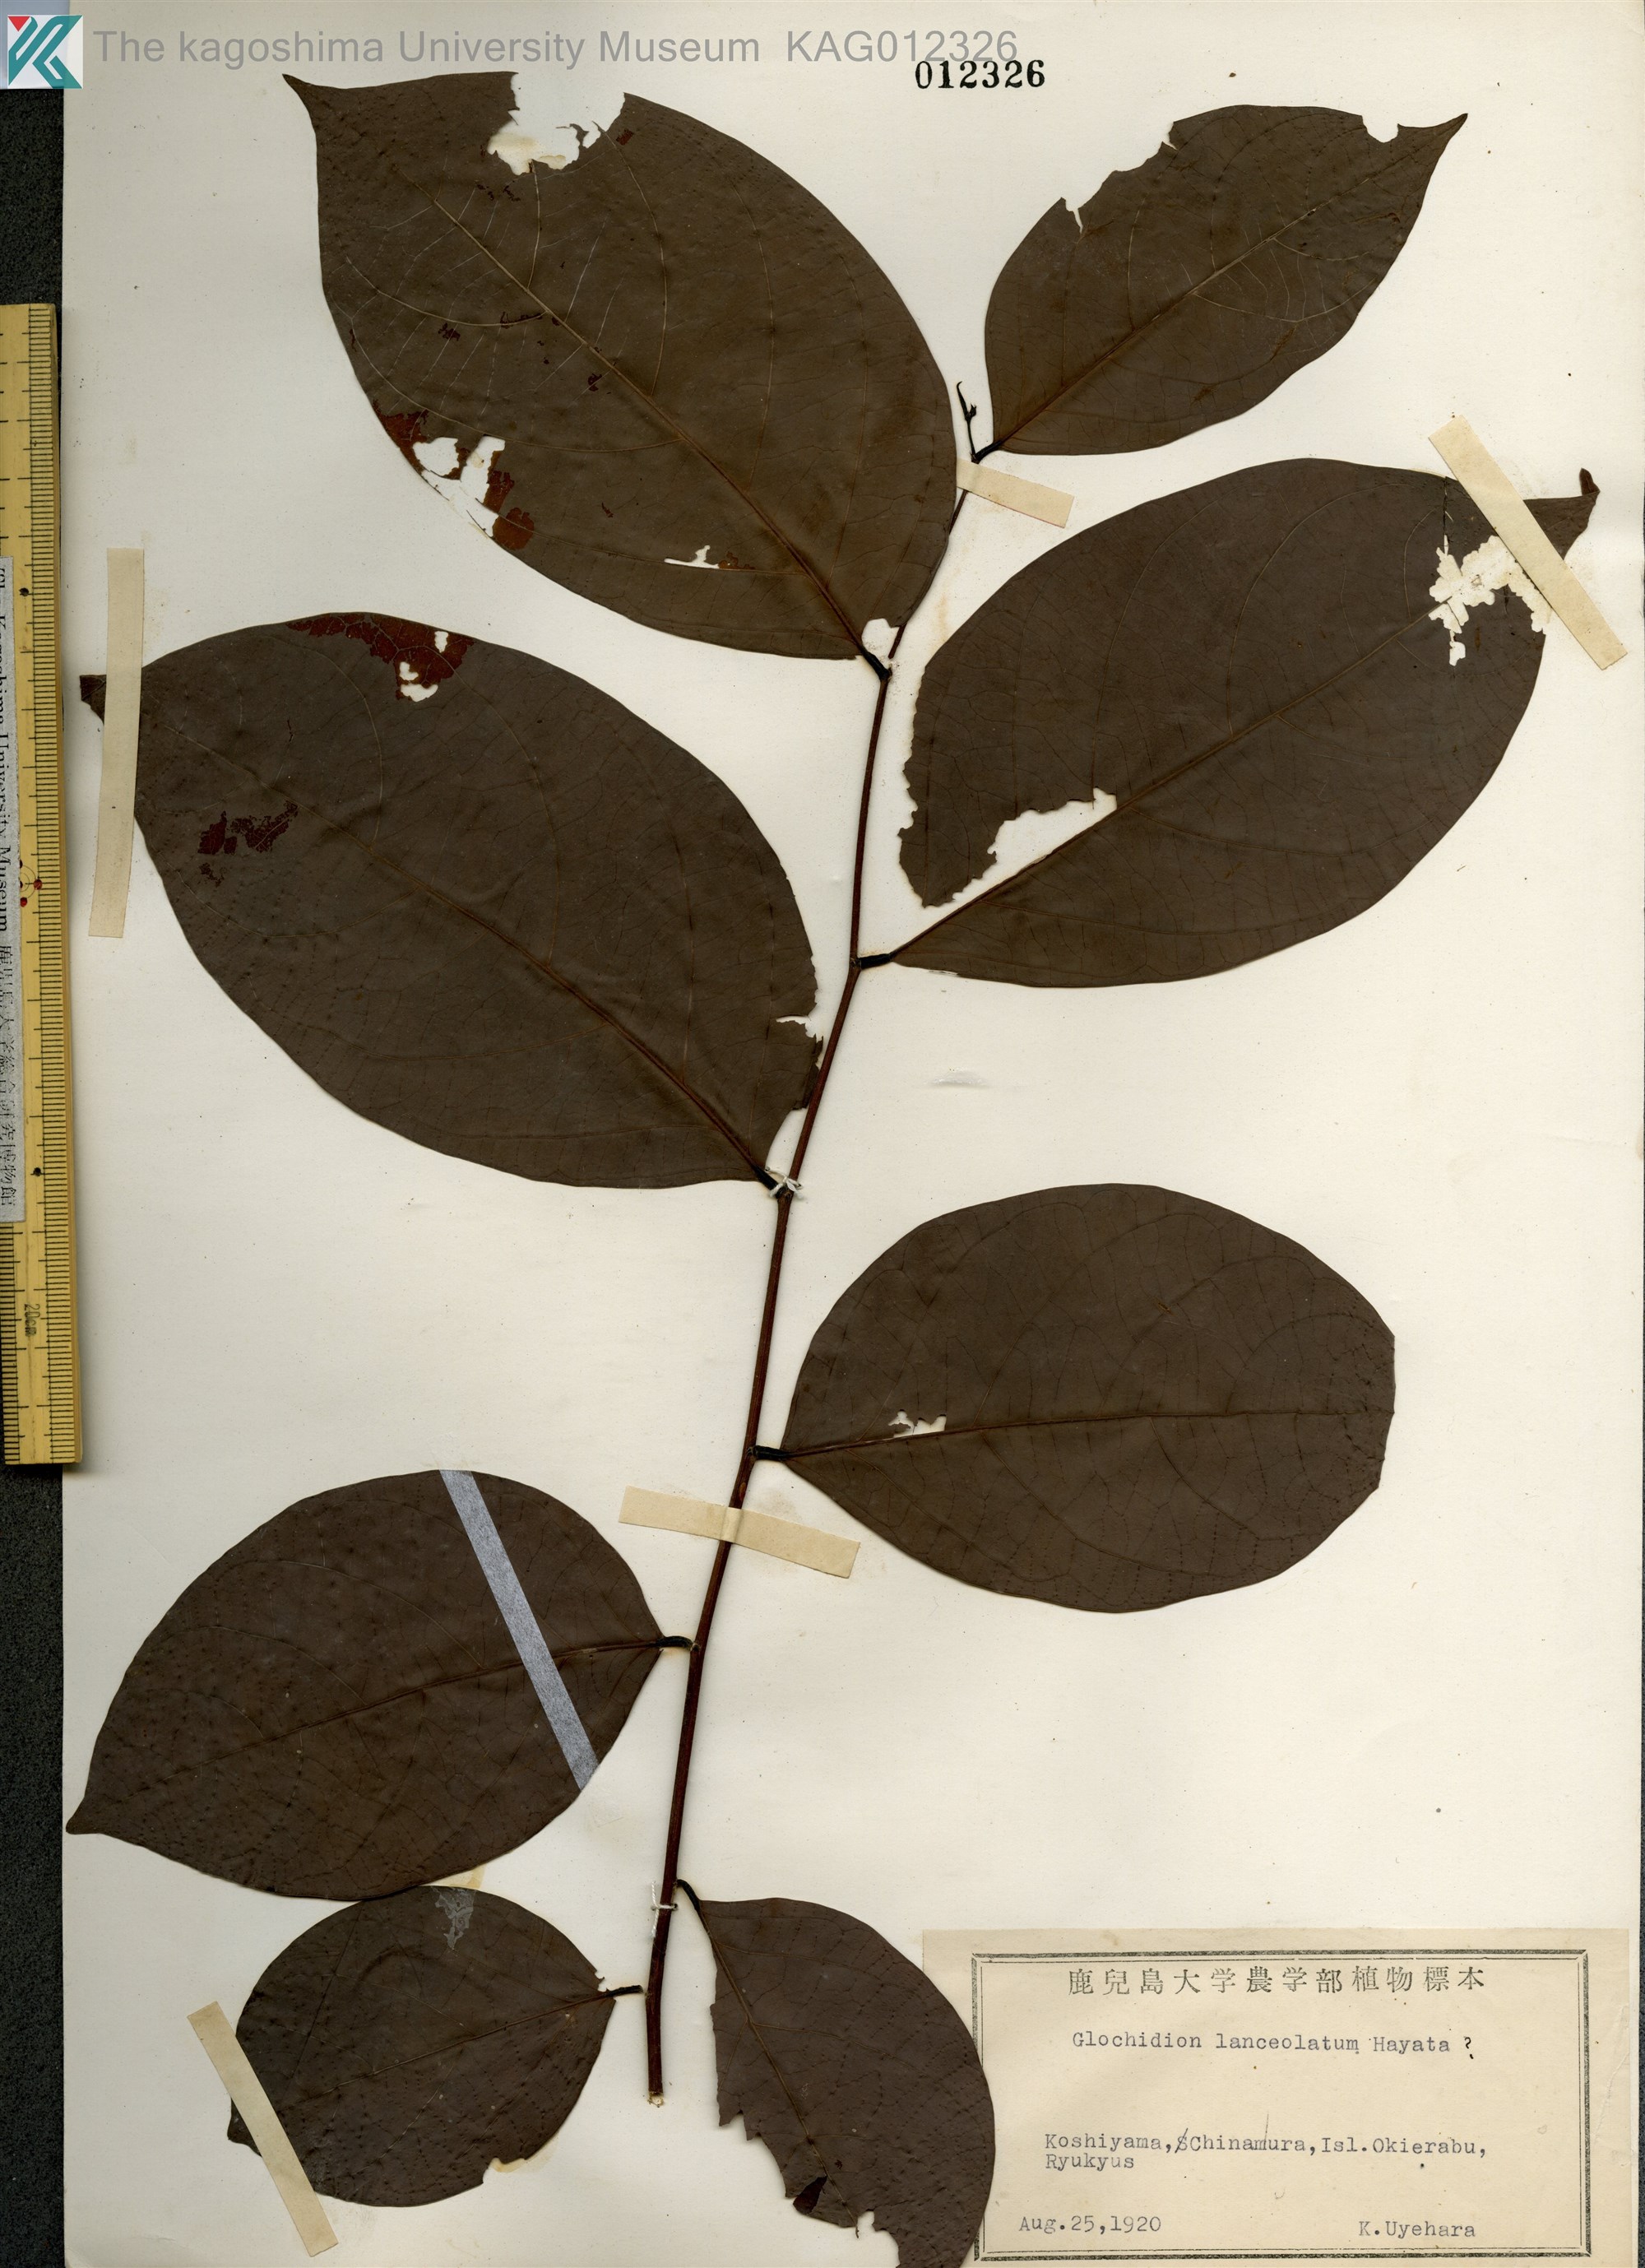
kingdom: Plantae
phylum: Tracheophyta
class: Magnoliopsida
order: Malpighiales
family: Phyllanthaceae
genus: Glochidion
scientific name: Glochidion lanceolatum
